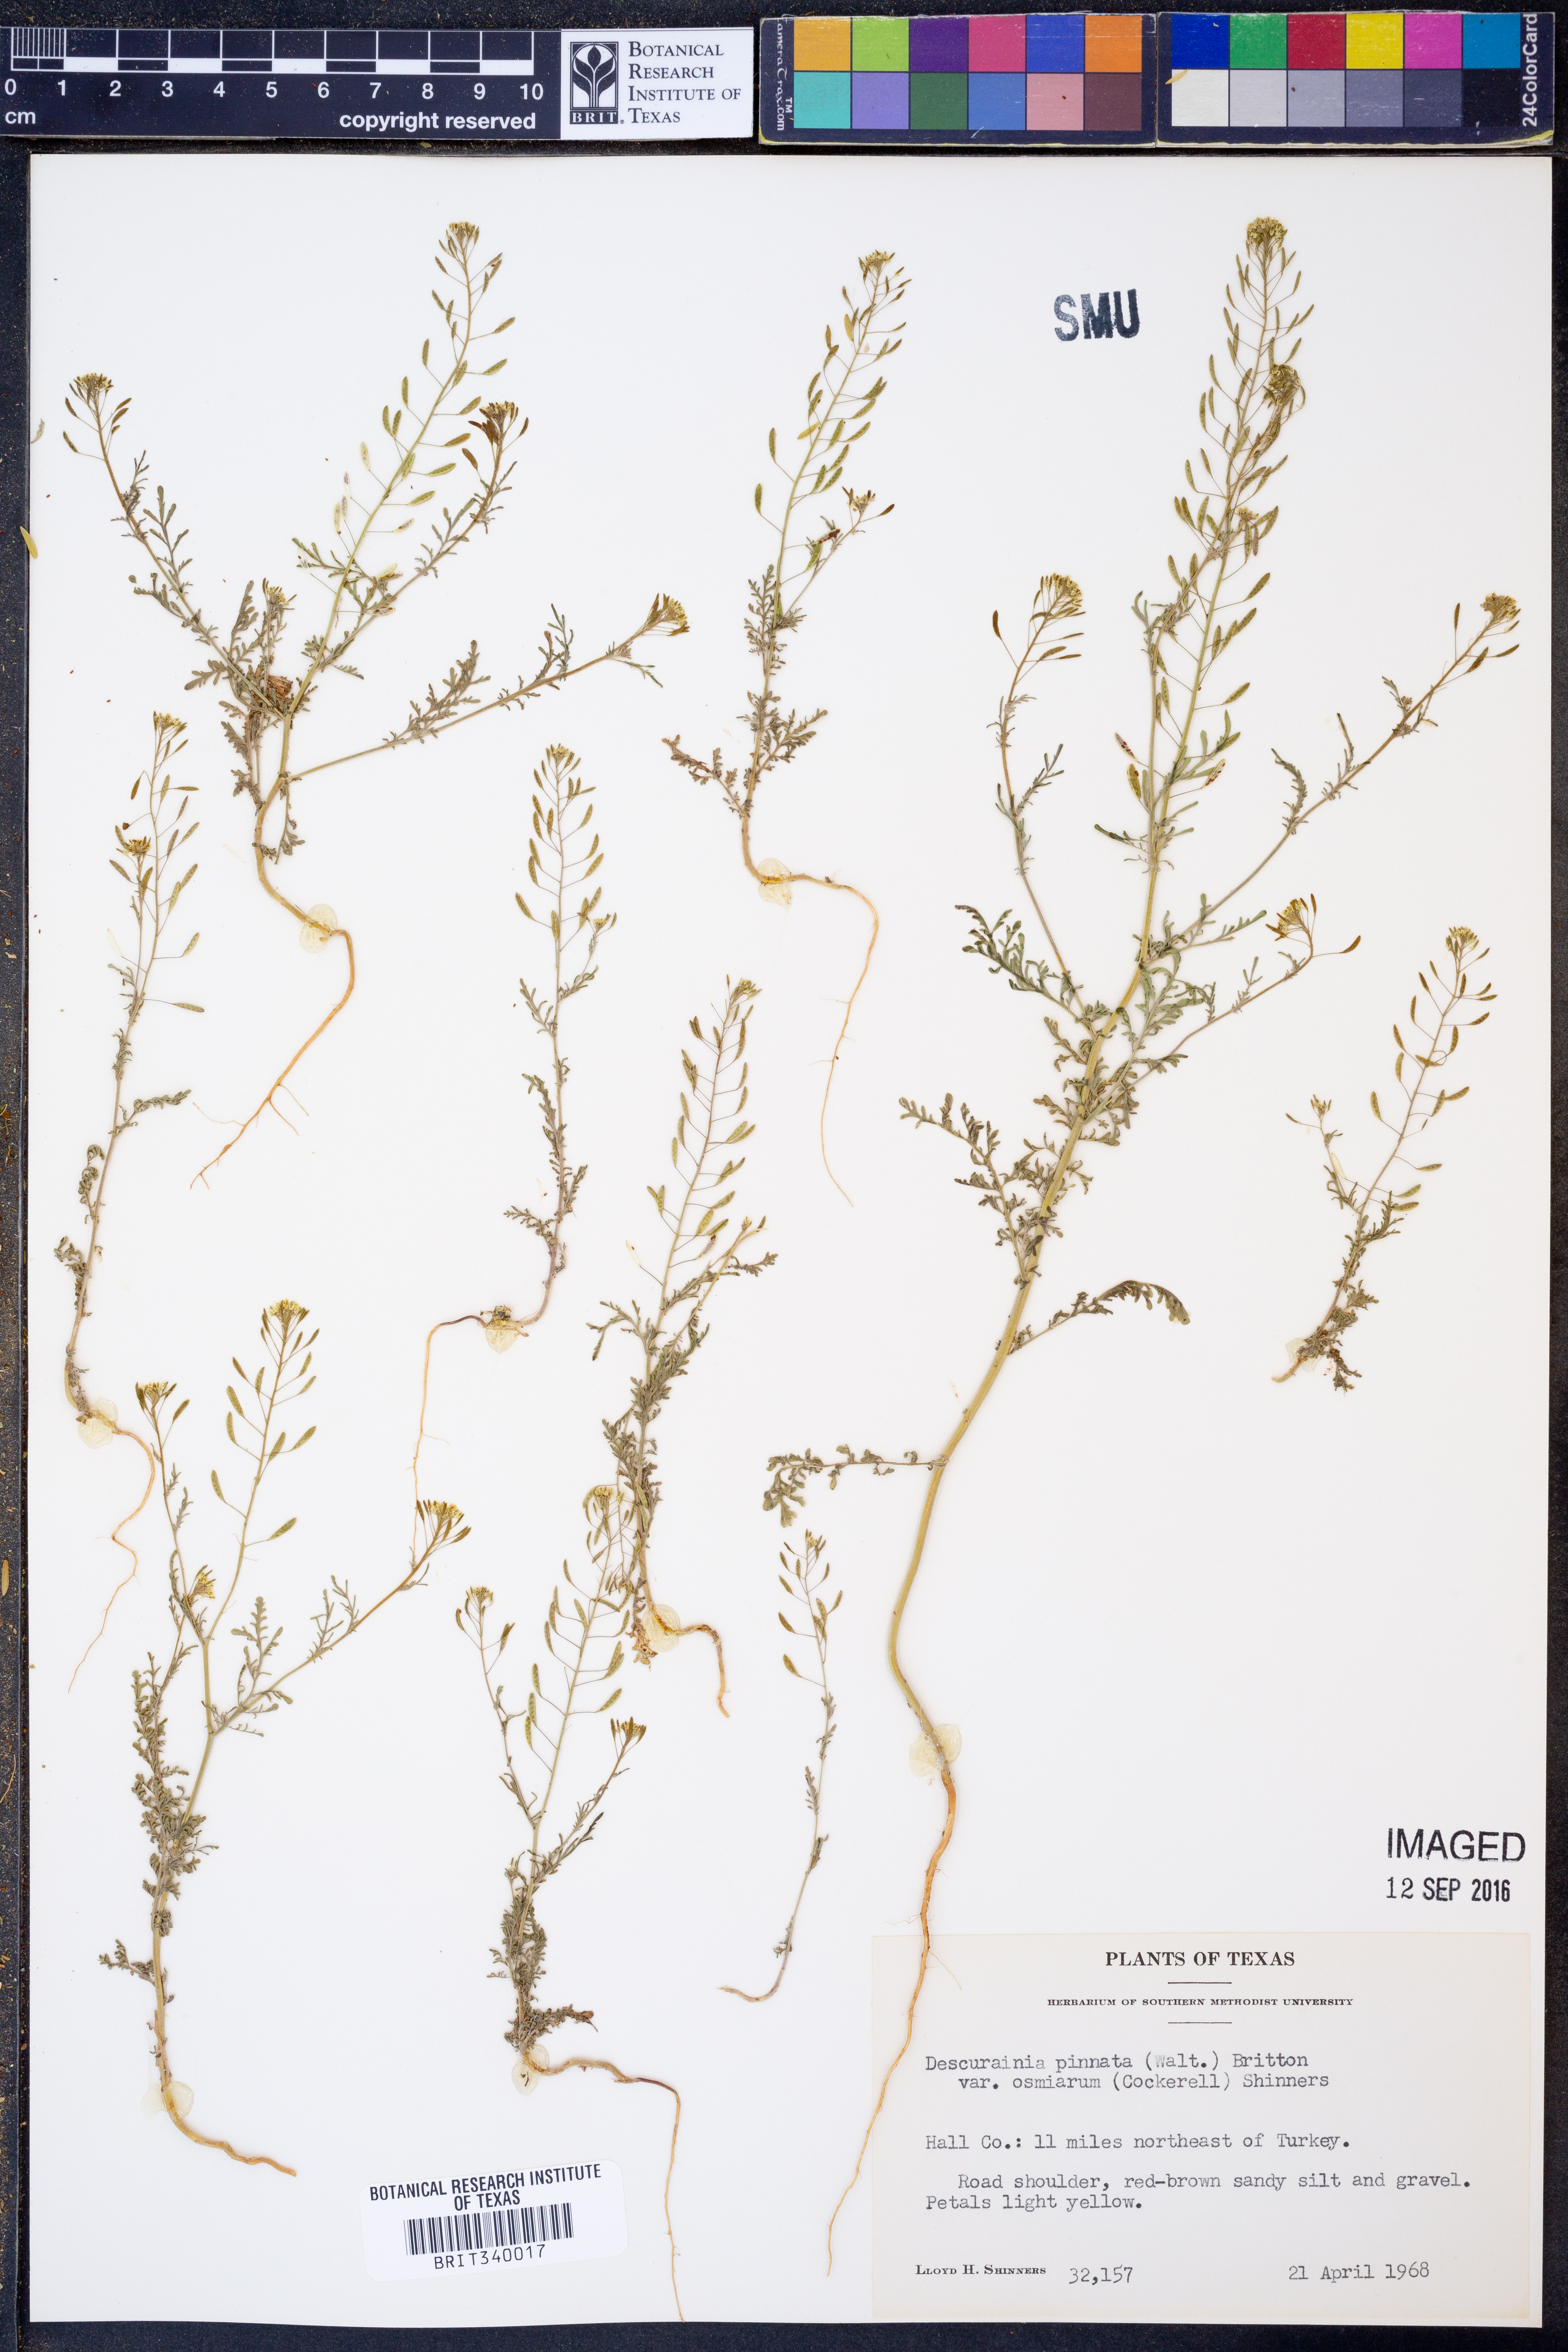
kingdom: Plantae
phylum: Tracheophyta
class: Magnoliopsida
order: Brassicales
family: Brassicaceae
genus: Descurainia
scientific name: Descurainia pinnata
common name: Western tansy mustard
